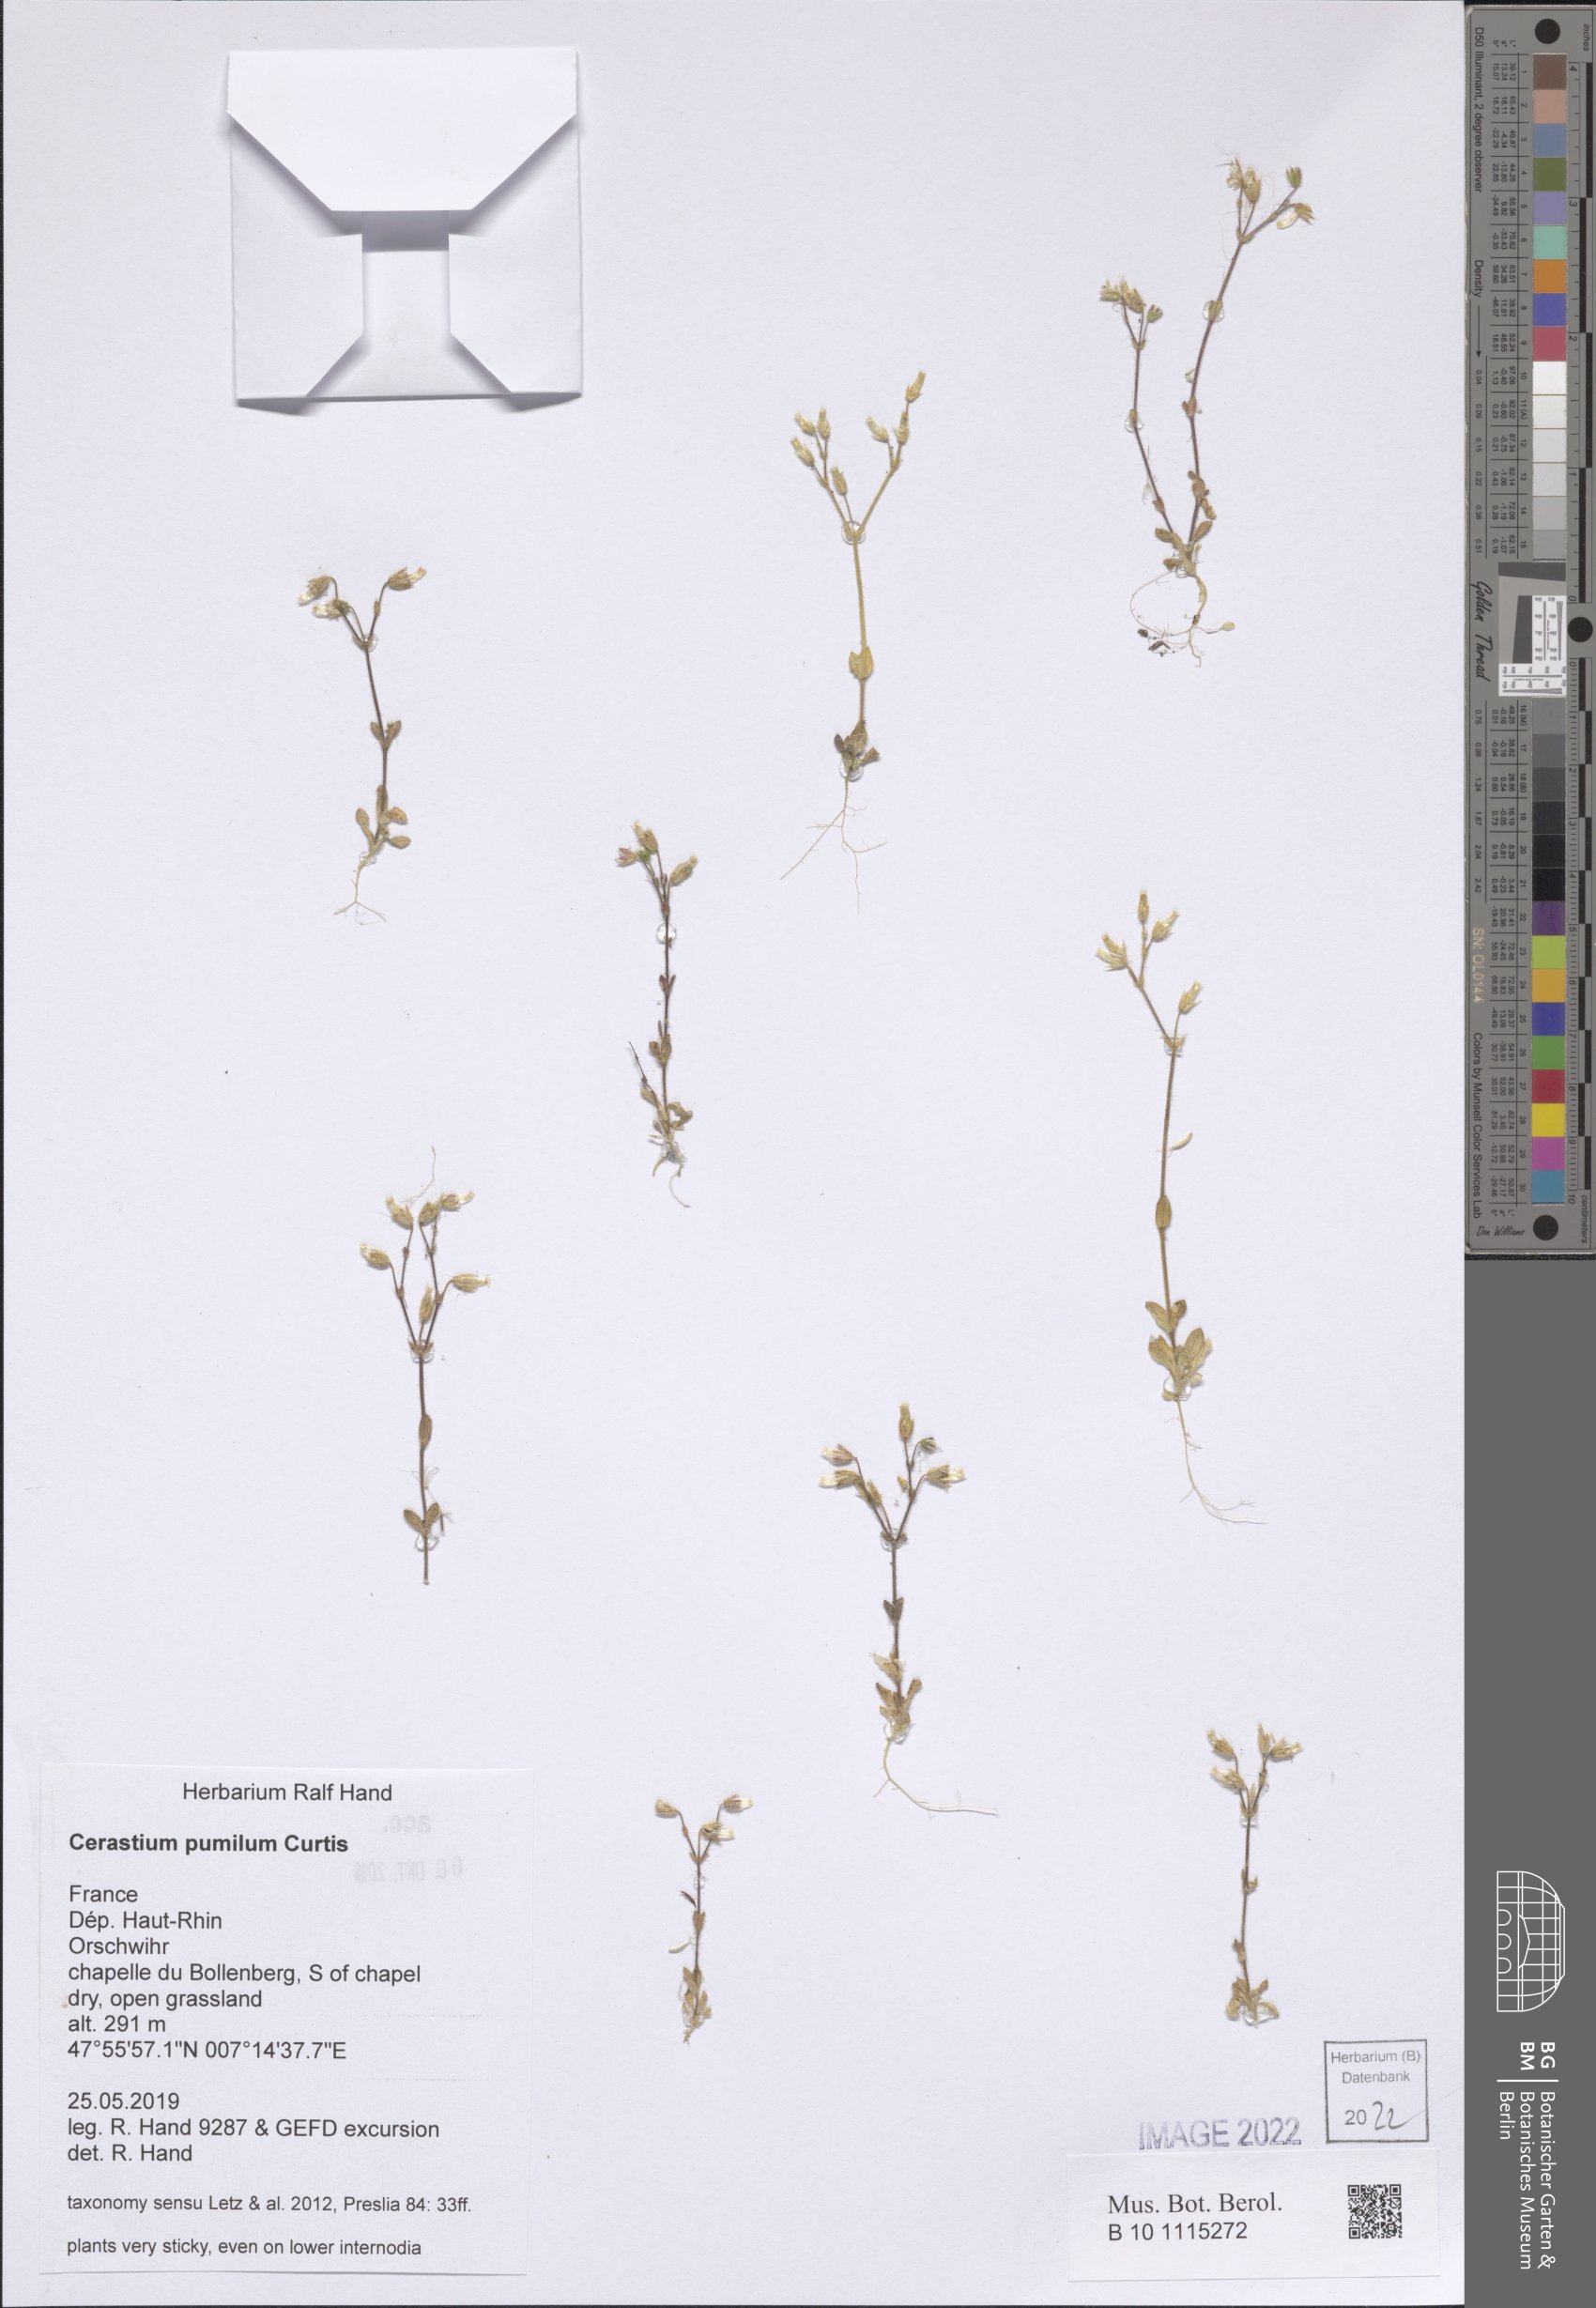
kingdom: Plantae
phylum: Tracheophyta
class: Magnoliopsida
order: Caryophyllales
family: Caryophyllaceae
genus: Cerastium
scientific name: Cerastium pumilum
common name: Dwarf mouse-ear
